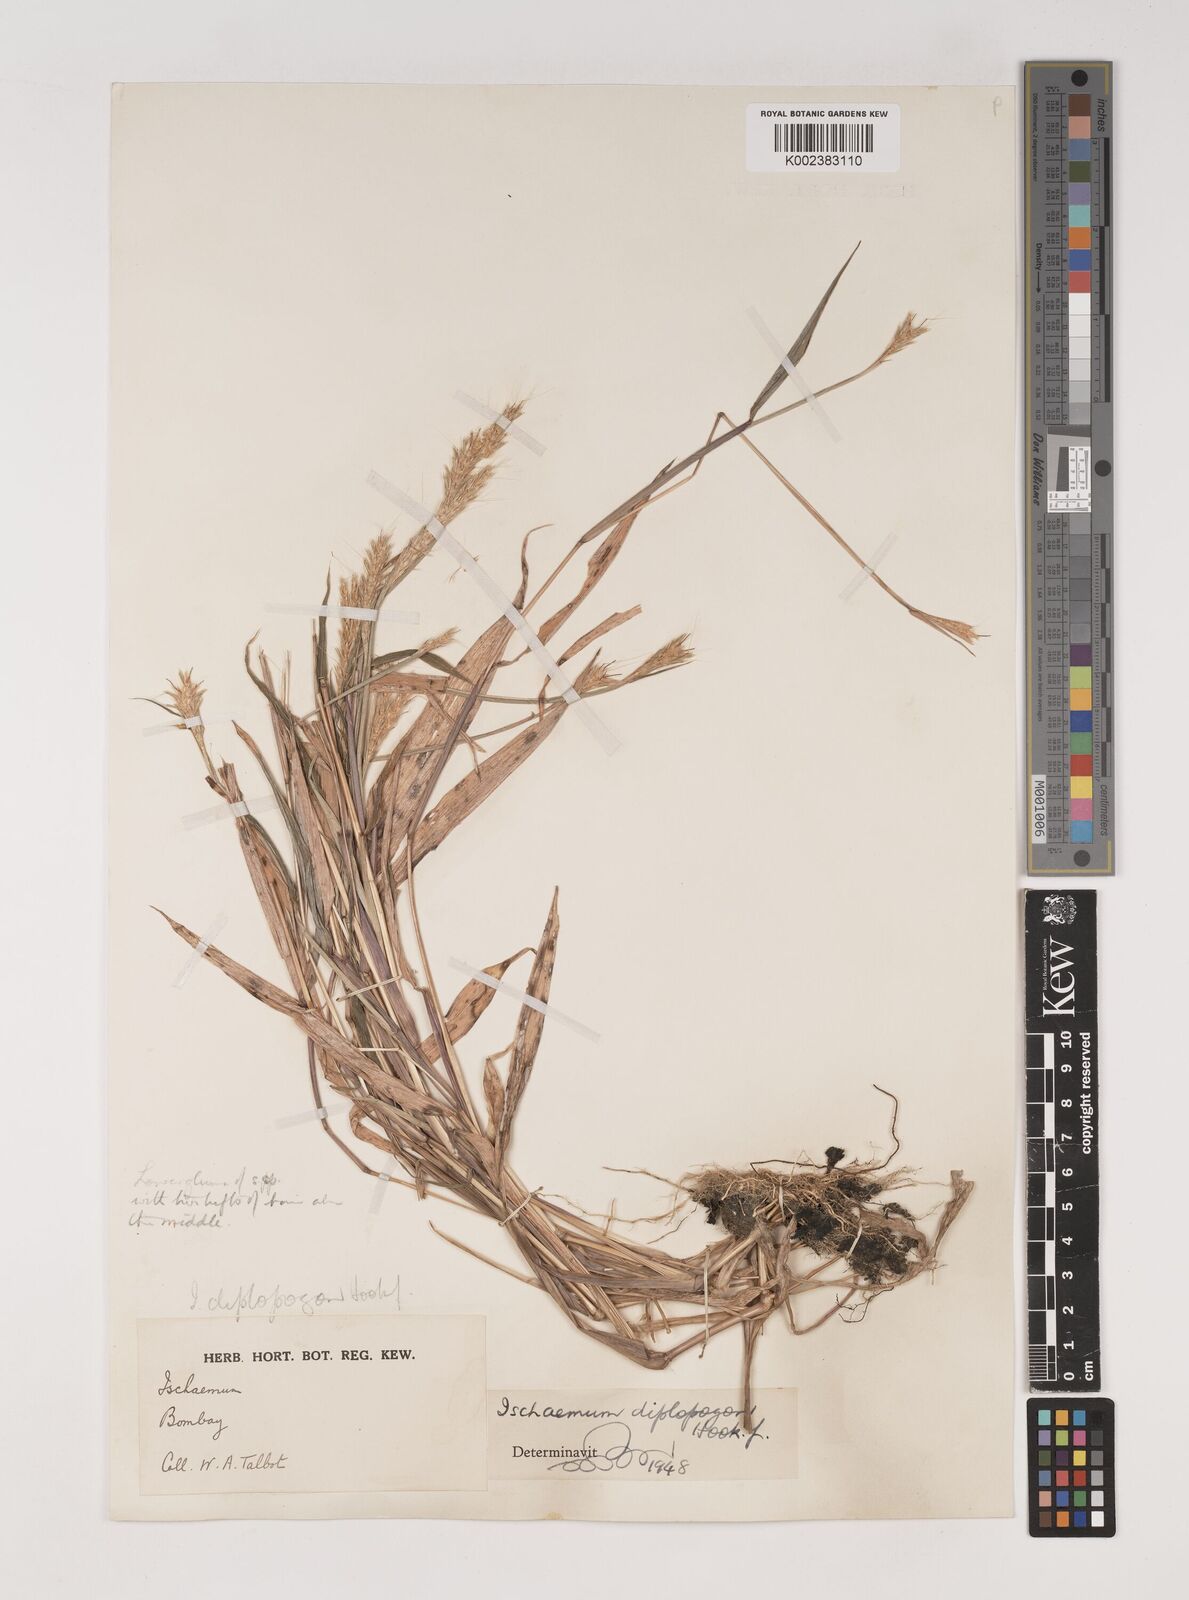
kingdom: Plantae
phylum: Tracheophyta
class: Liliopsida
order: Poales
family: Poaceae
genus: Ischaemum
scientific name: Ischaemum diplopogon
